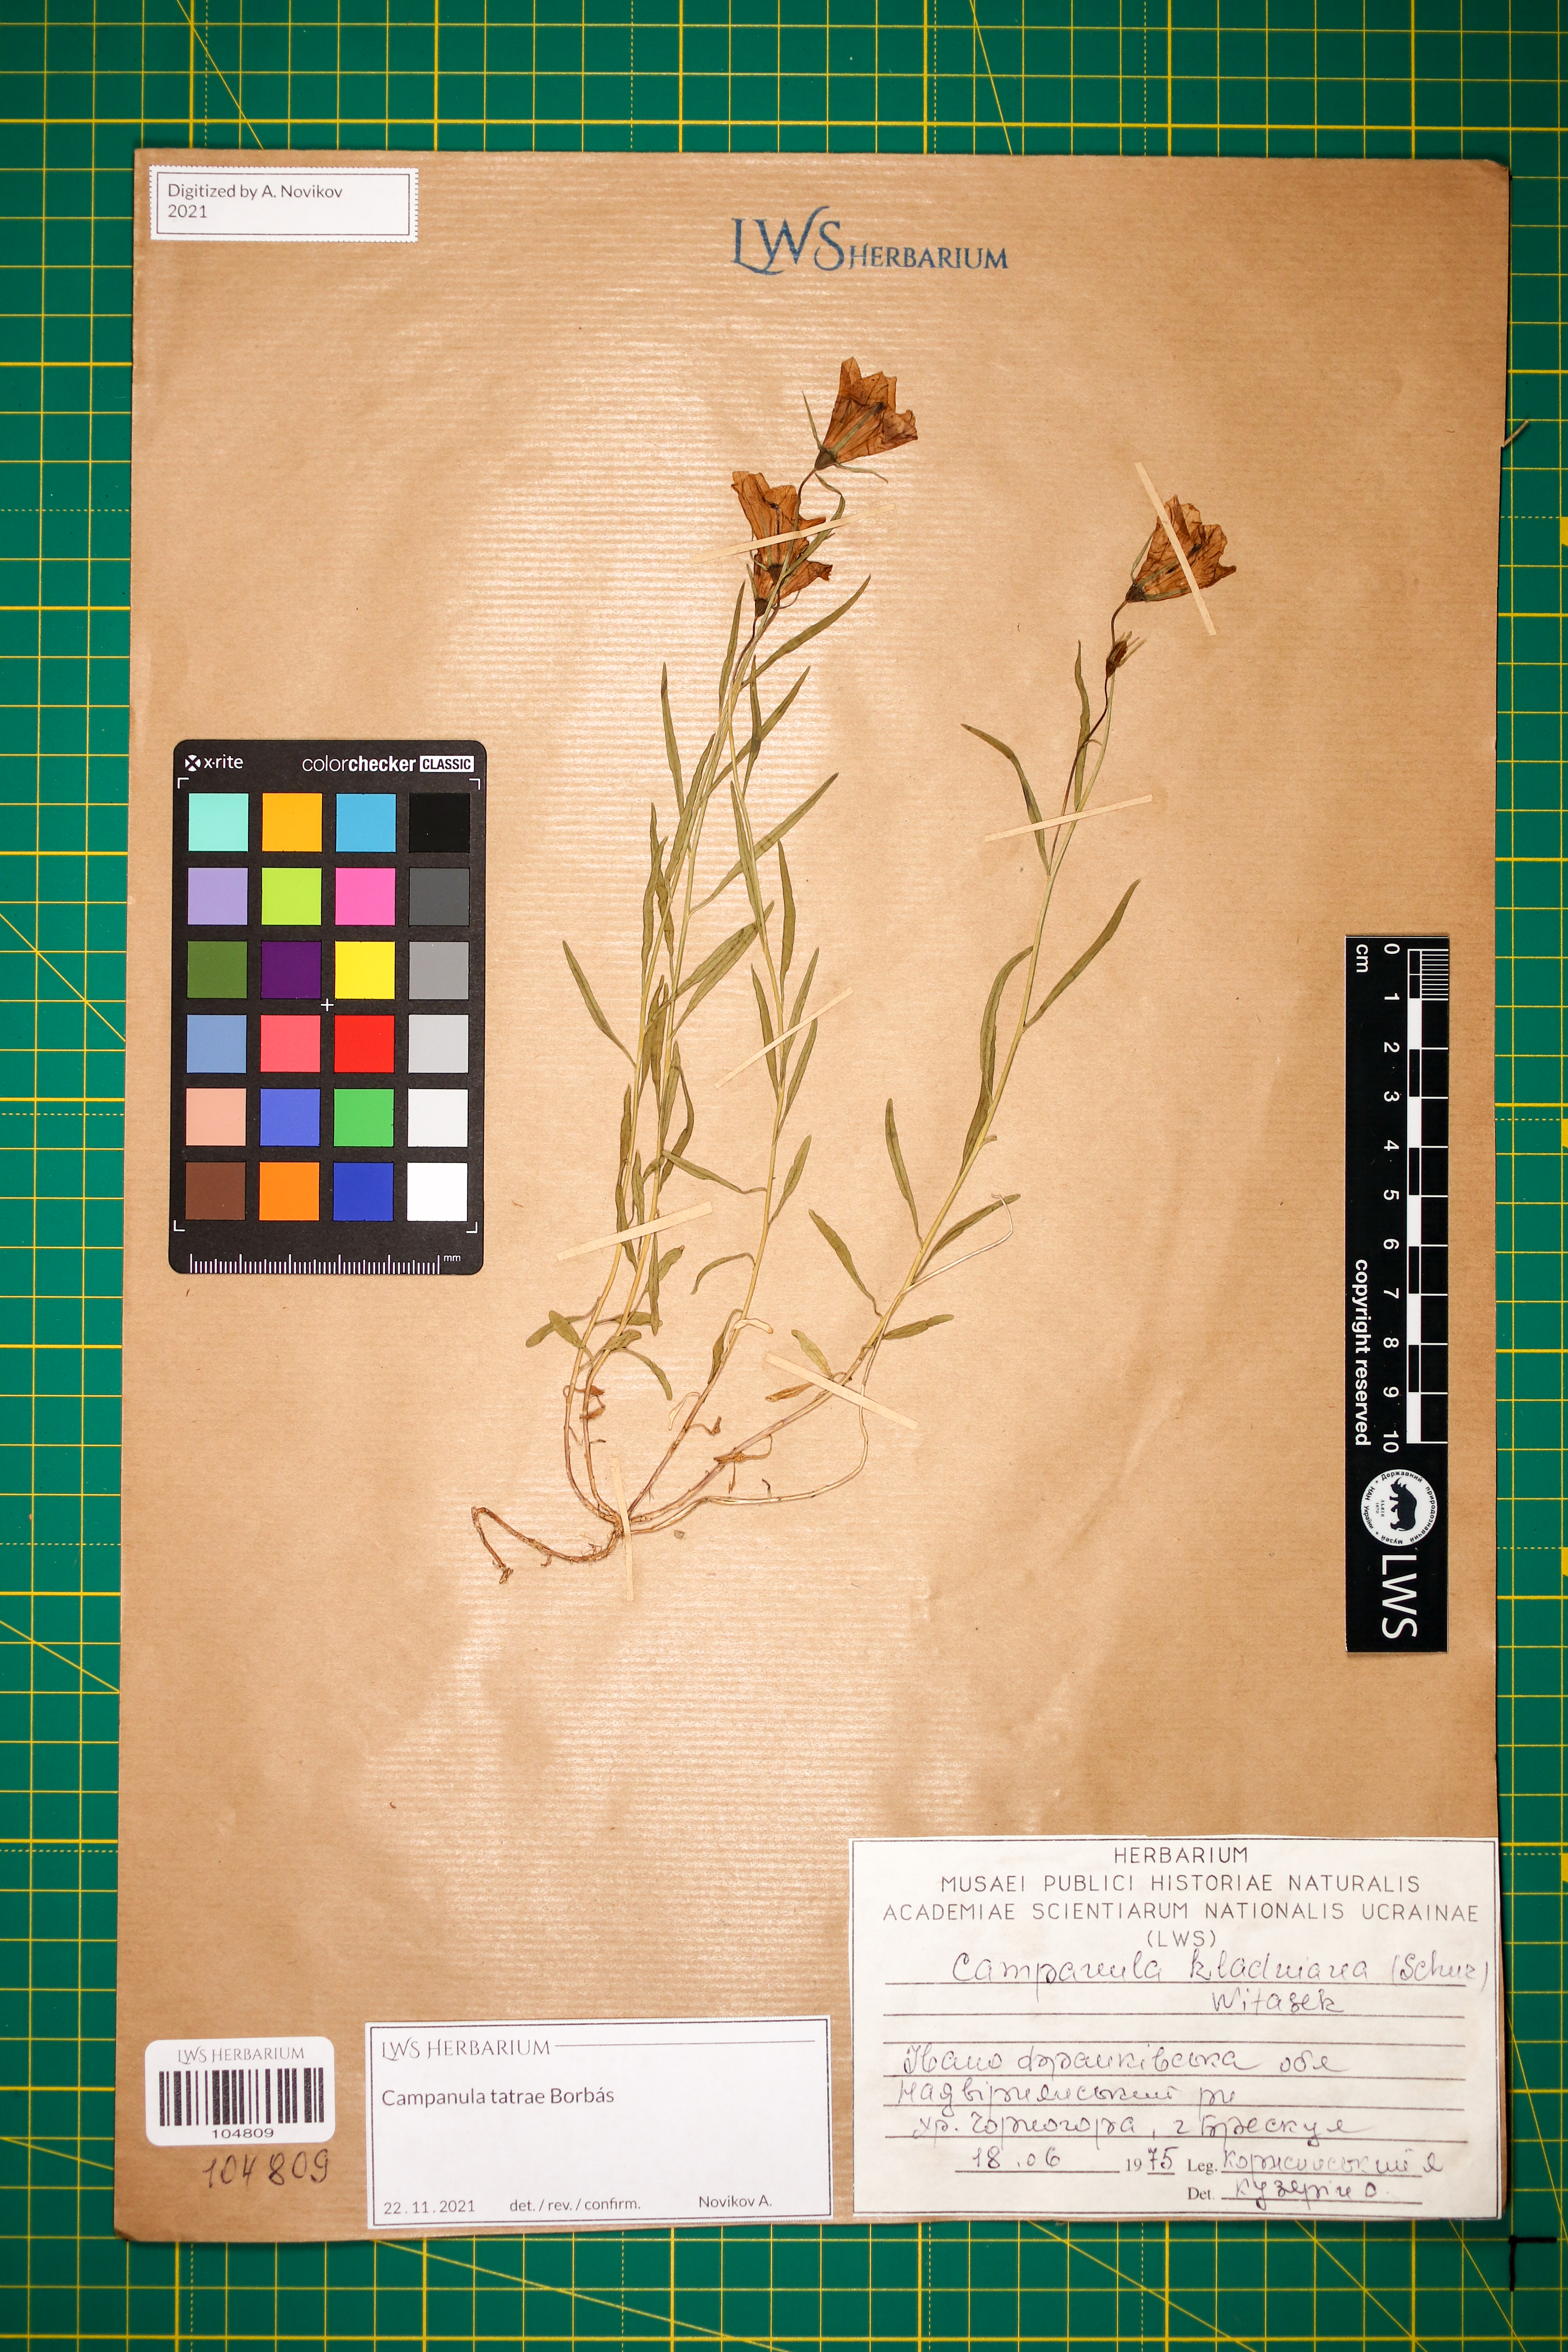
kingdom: Plantae
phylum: Tracheophyta
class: Magnoliopsida
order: Asterales
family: Campanulaceae
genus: Campanula
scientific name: Campanula kladniana
